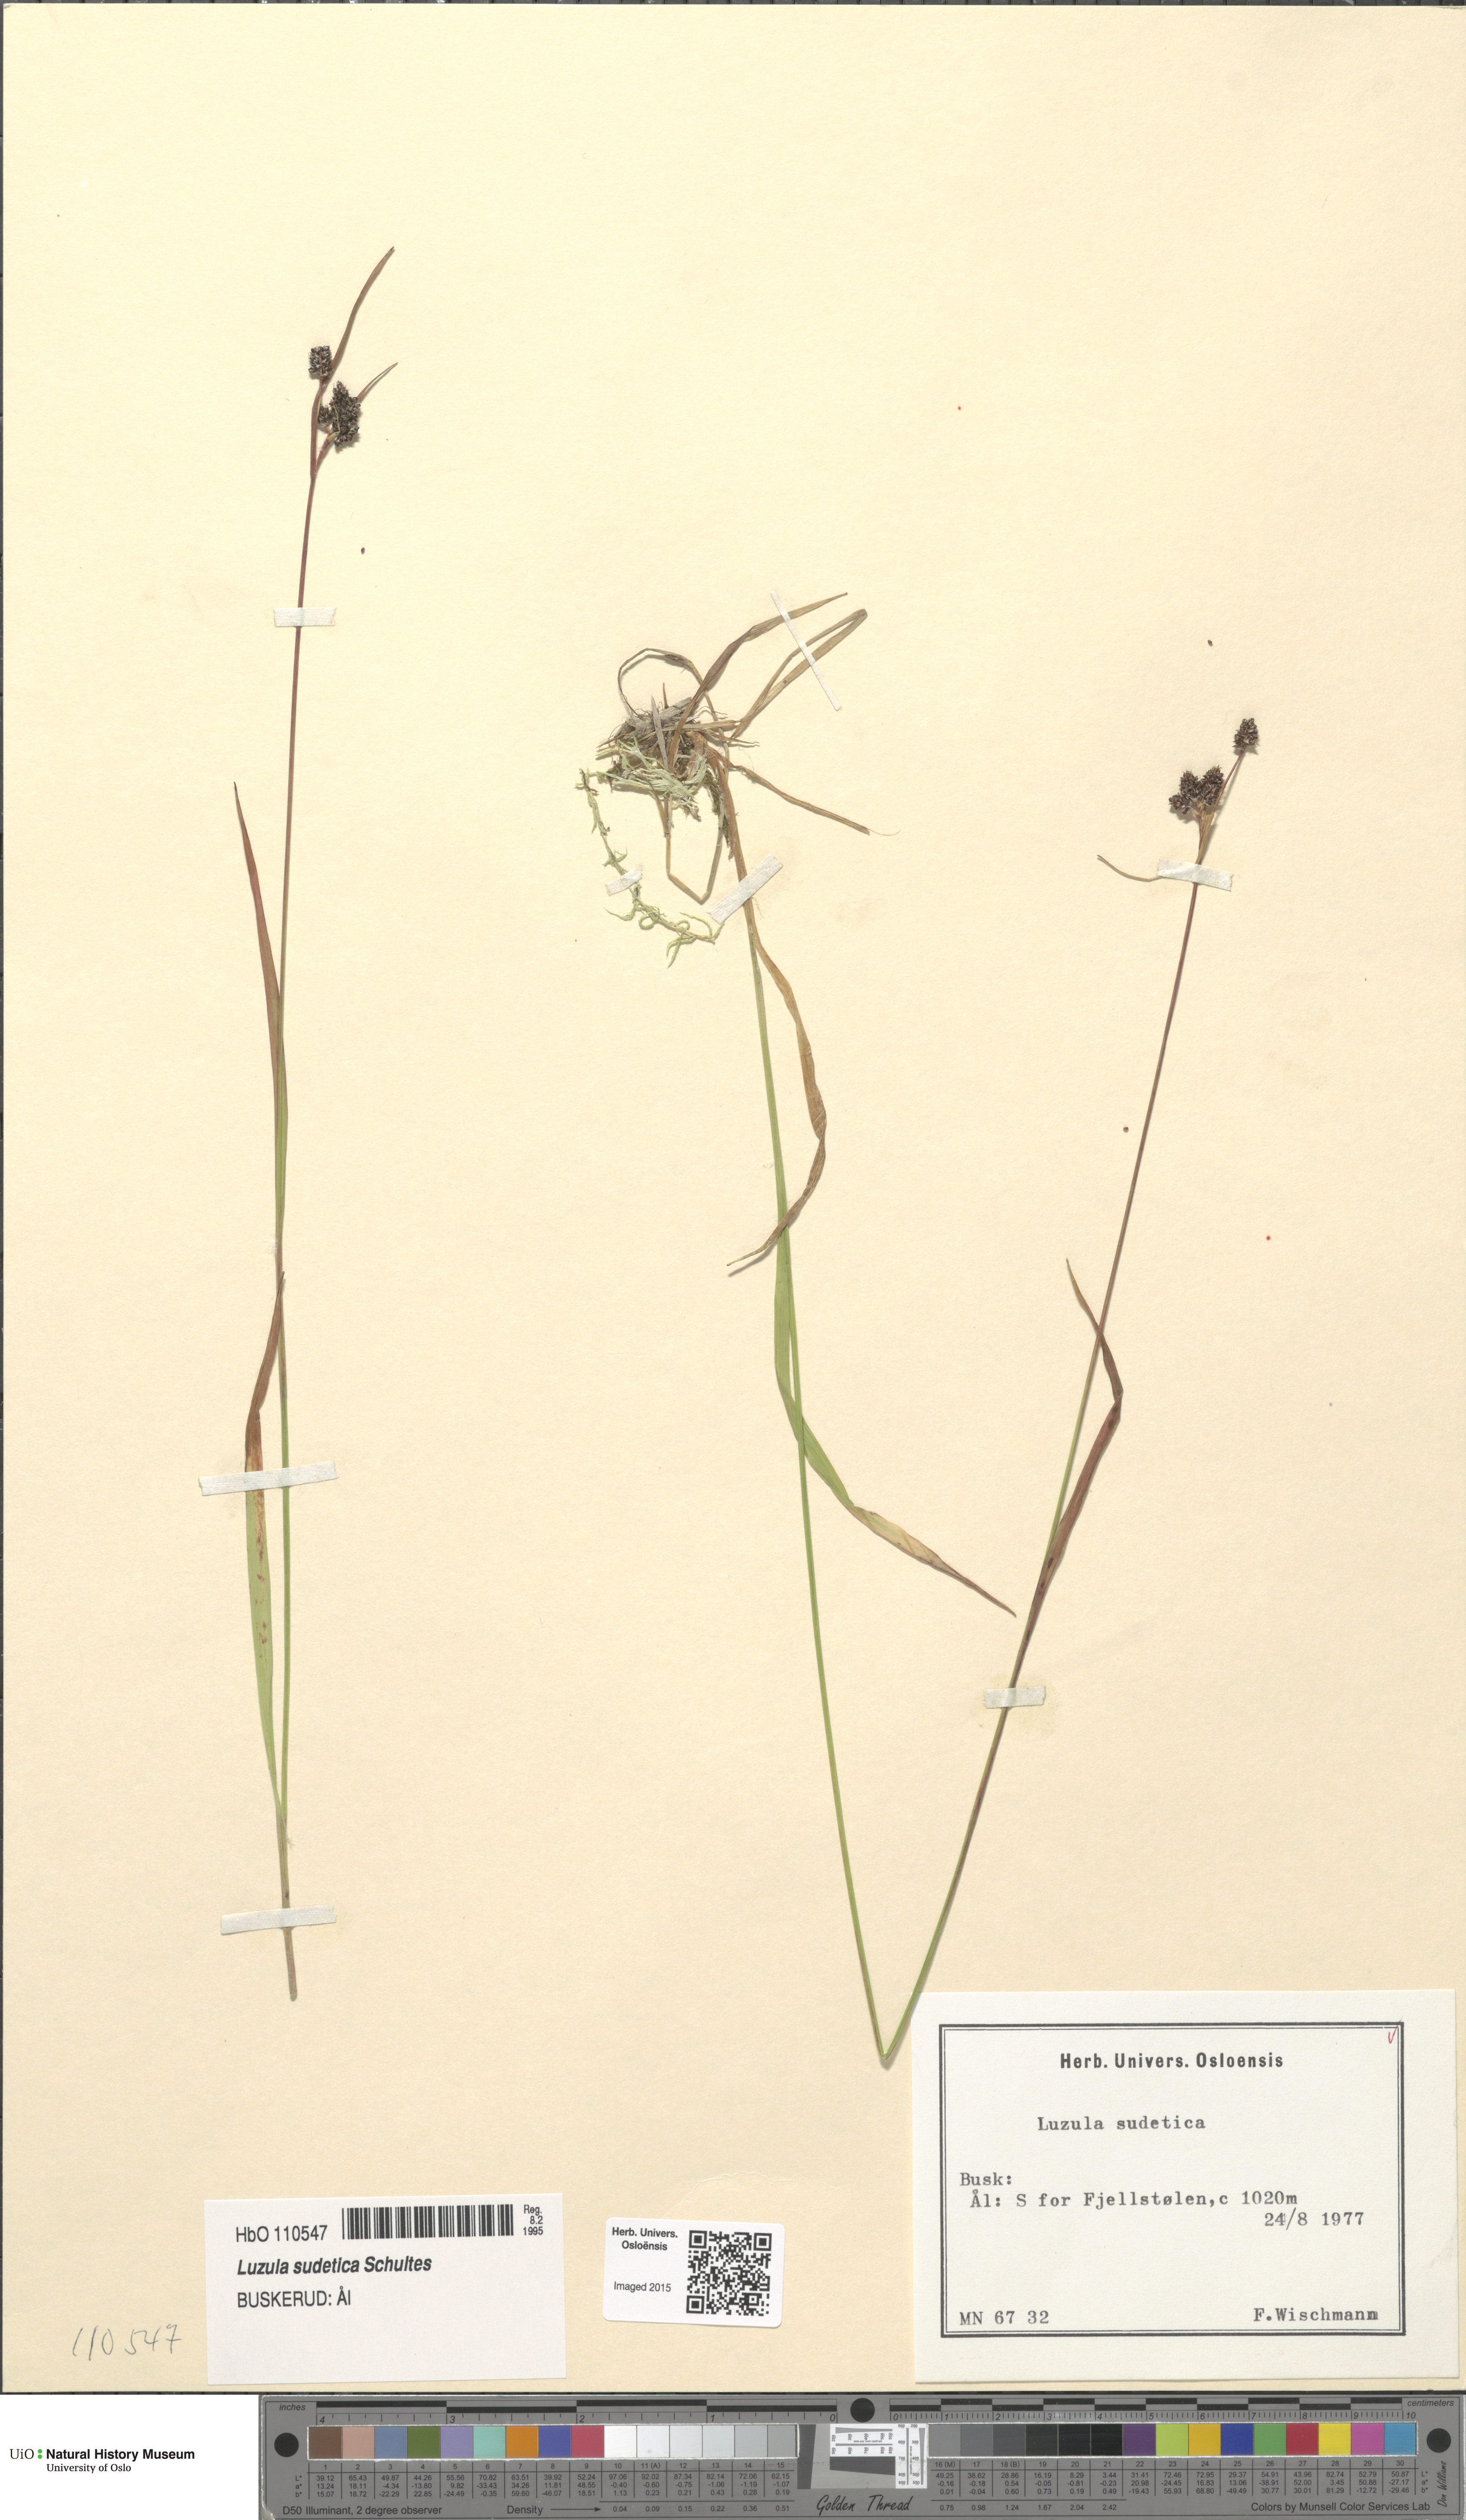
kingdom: Plantae
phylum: Tracheophyta
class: Liliopsida
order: Poales
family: Juncaceae
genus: Luzula
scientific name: Luzula sudetica
